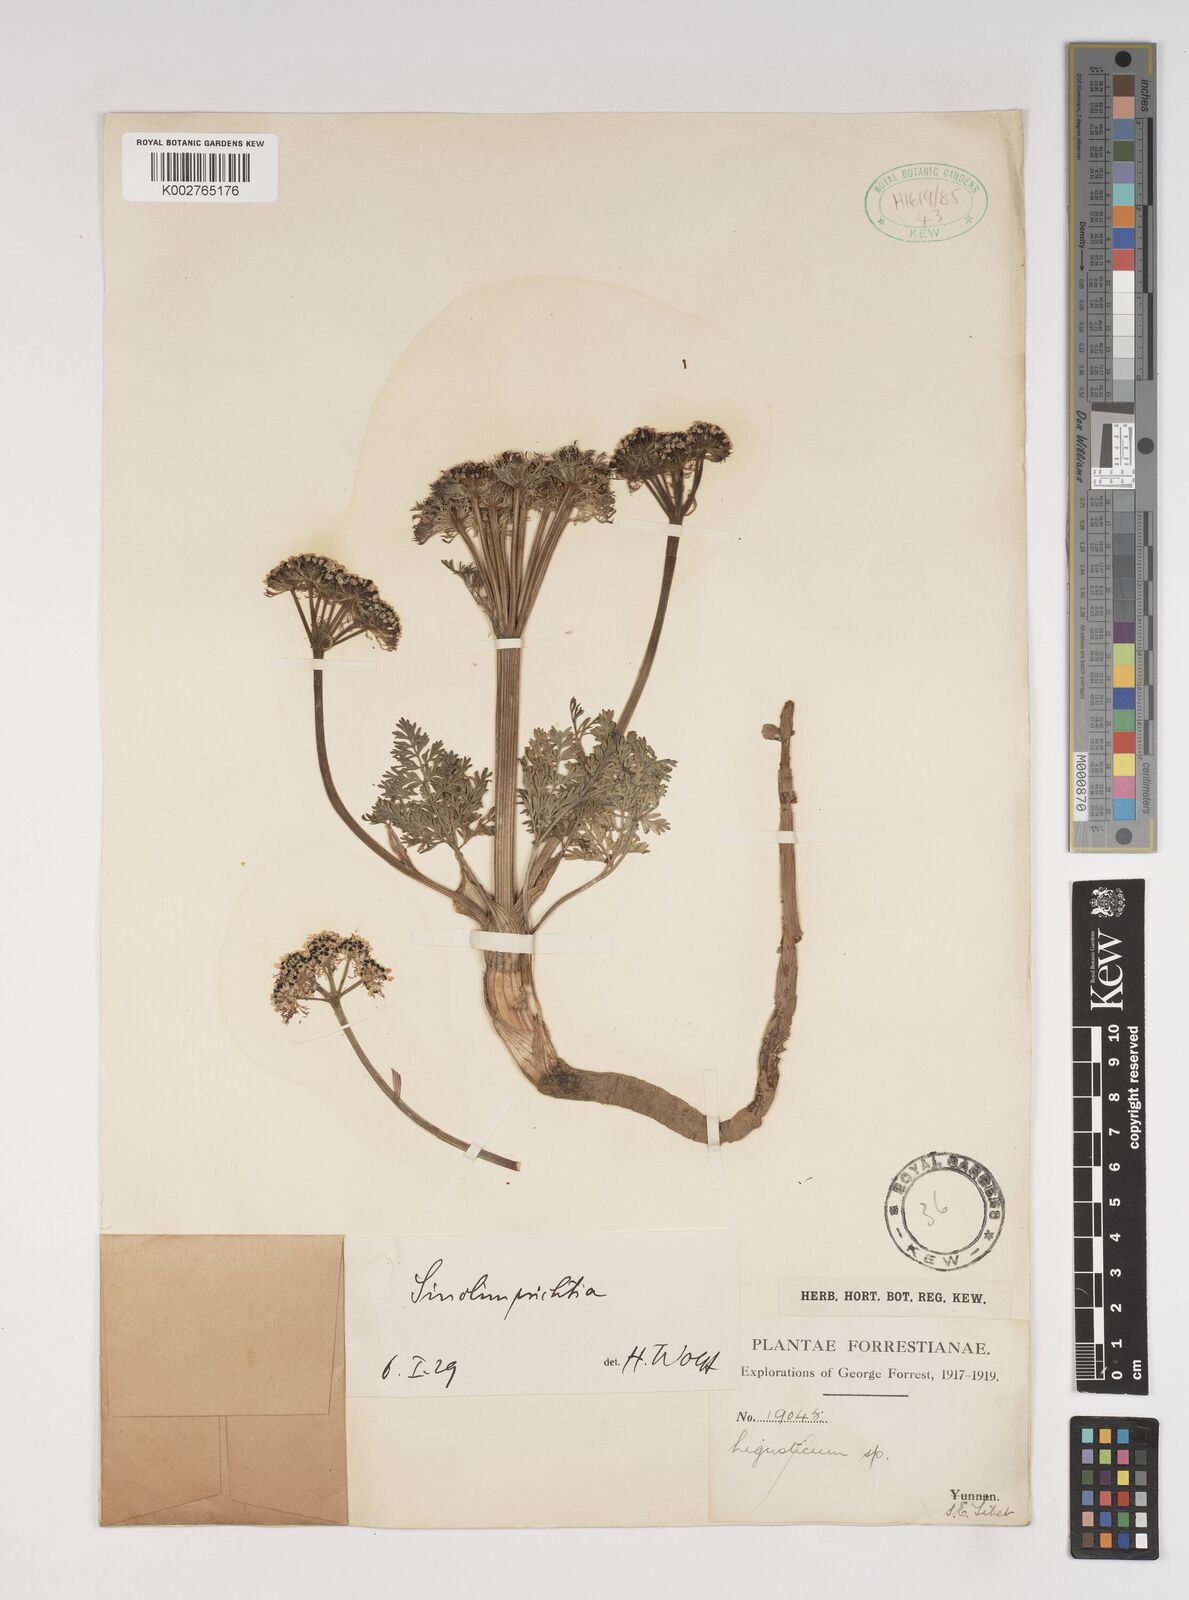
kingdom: Plantae
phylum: Tracheophyta
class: Magnoliopsida
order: Apiales
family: Apiaceae
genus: Sinolimprichtia
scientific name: Sinolimprichtia
